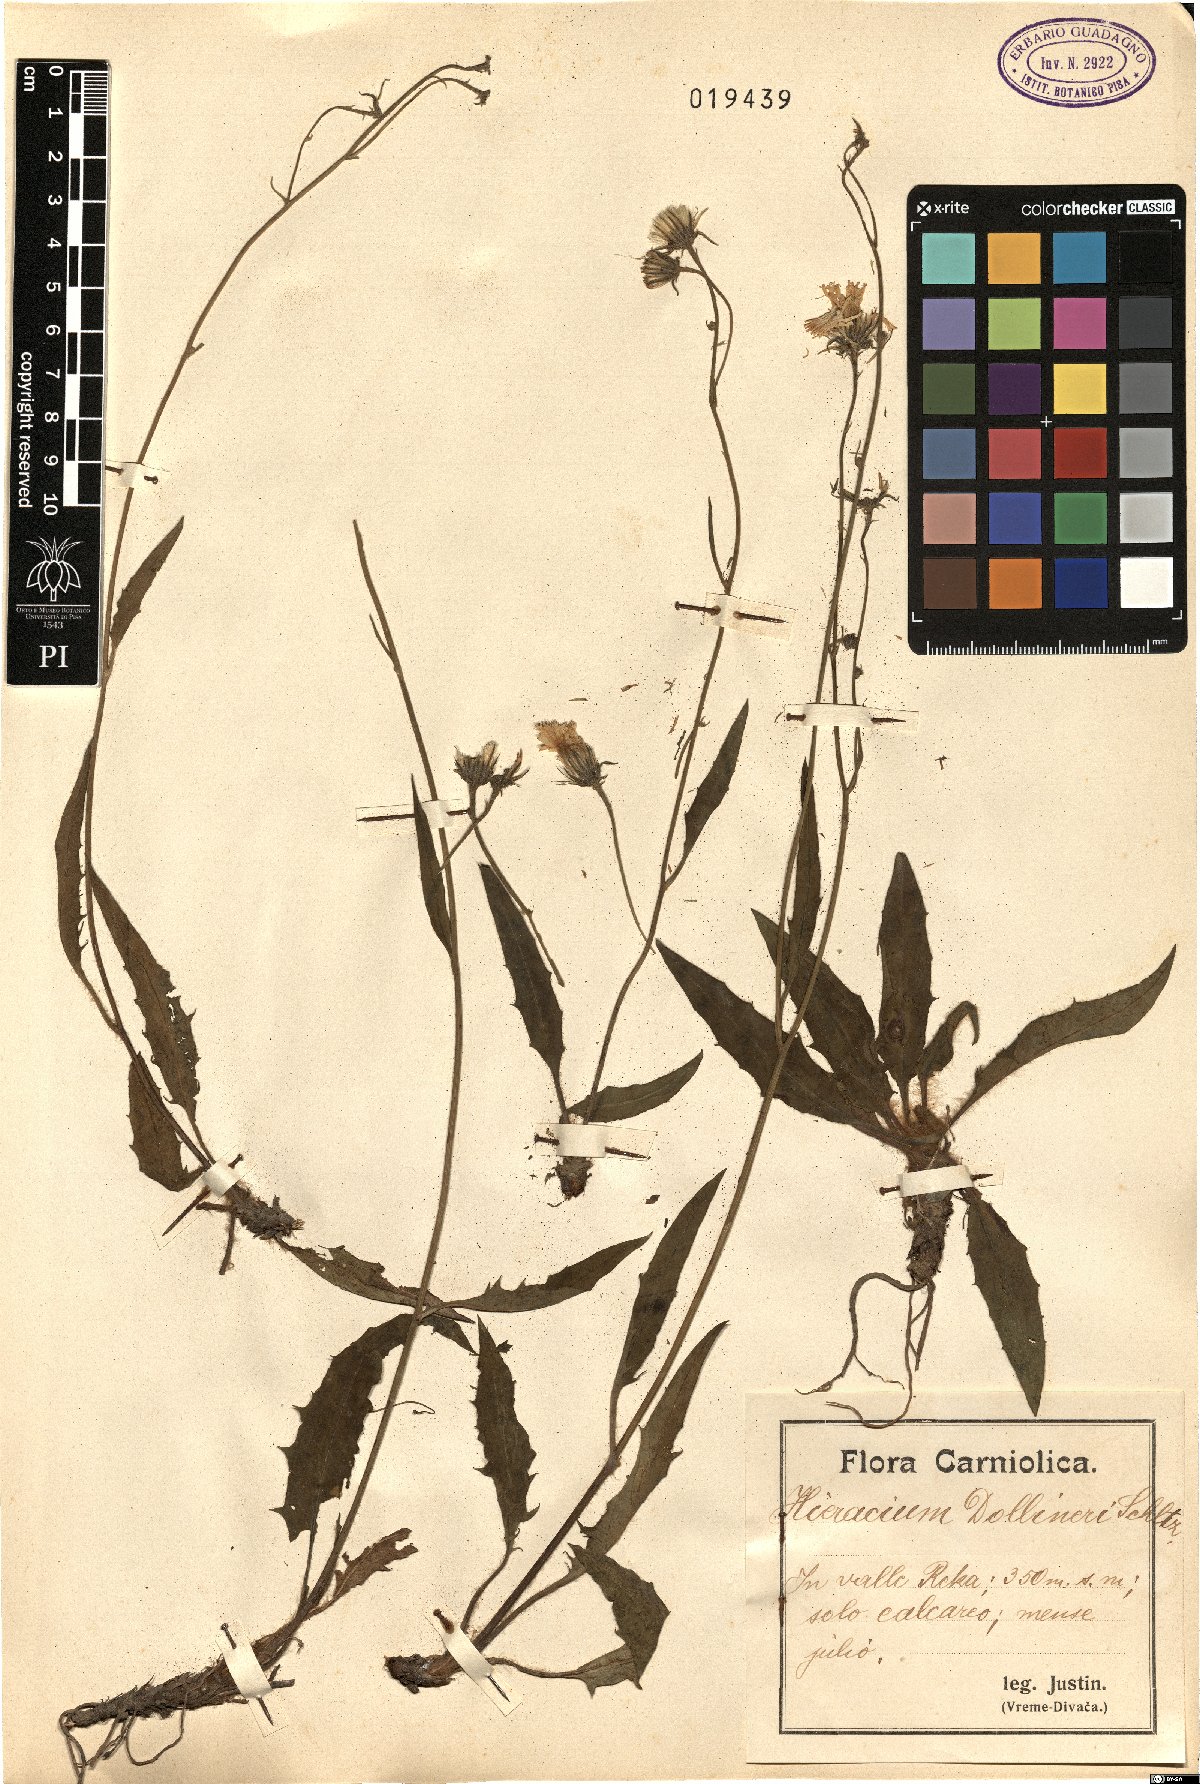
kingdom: Plantae
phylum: Tracheophyta
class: Magnoliopsida
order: Asterales
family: Asteraceae
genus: Hieracium
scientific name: Hieracium dollineri
